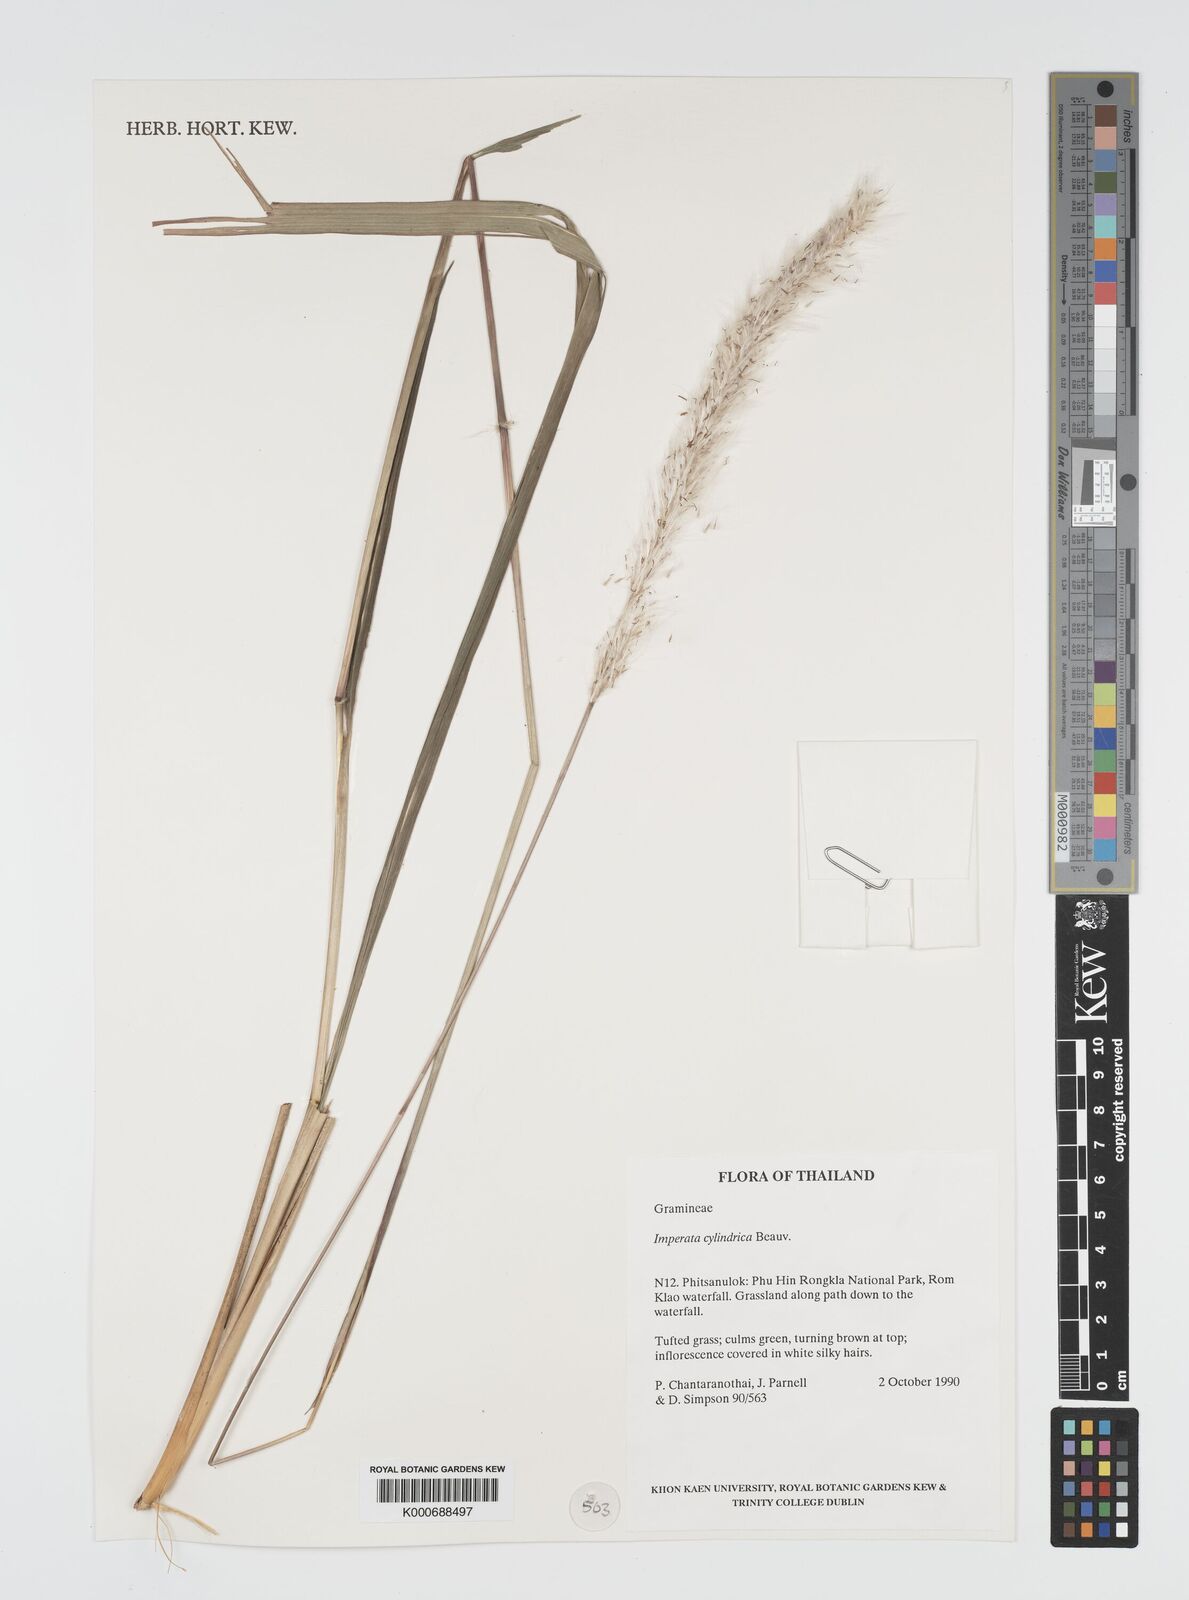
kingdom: Plantae
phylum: Tracheophyta
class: Liliopsida
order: Poales
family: Poaceae
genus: Imperata
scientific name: Imperata conferta
